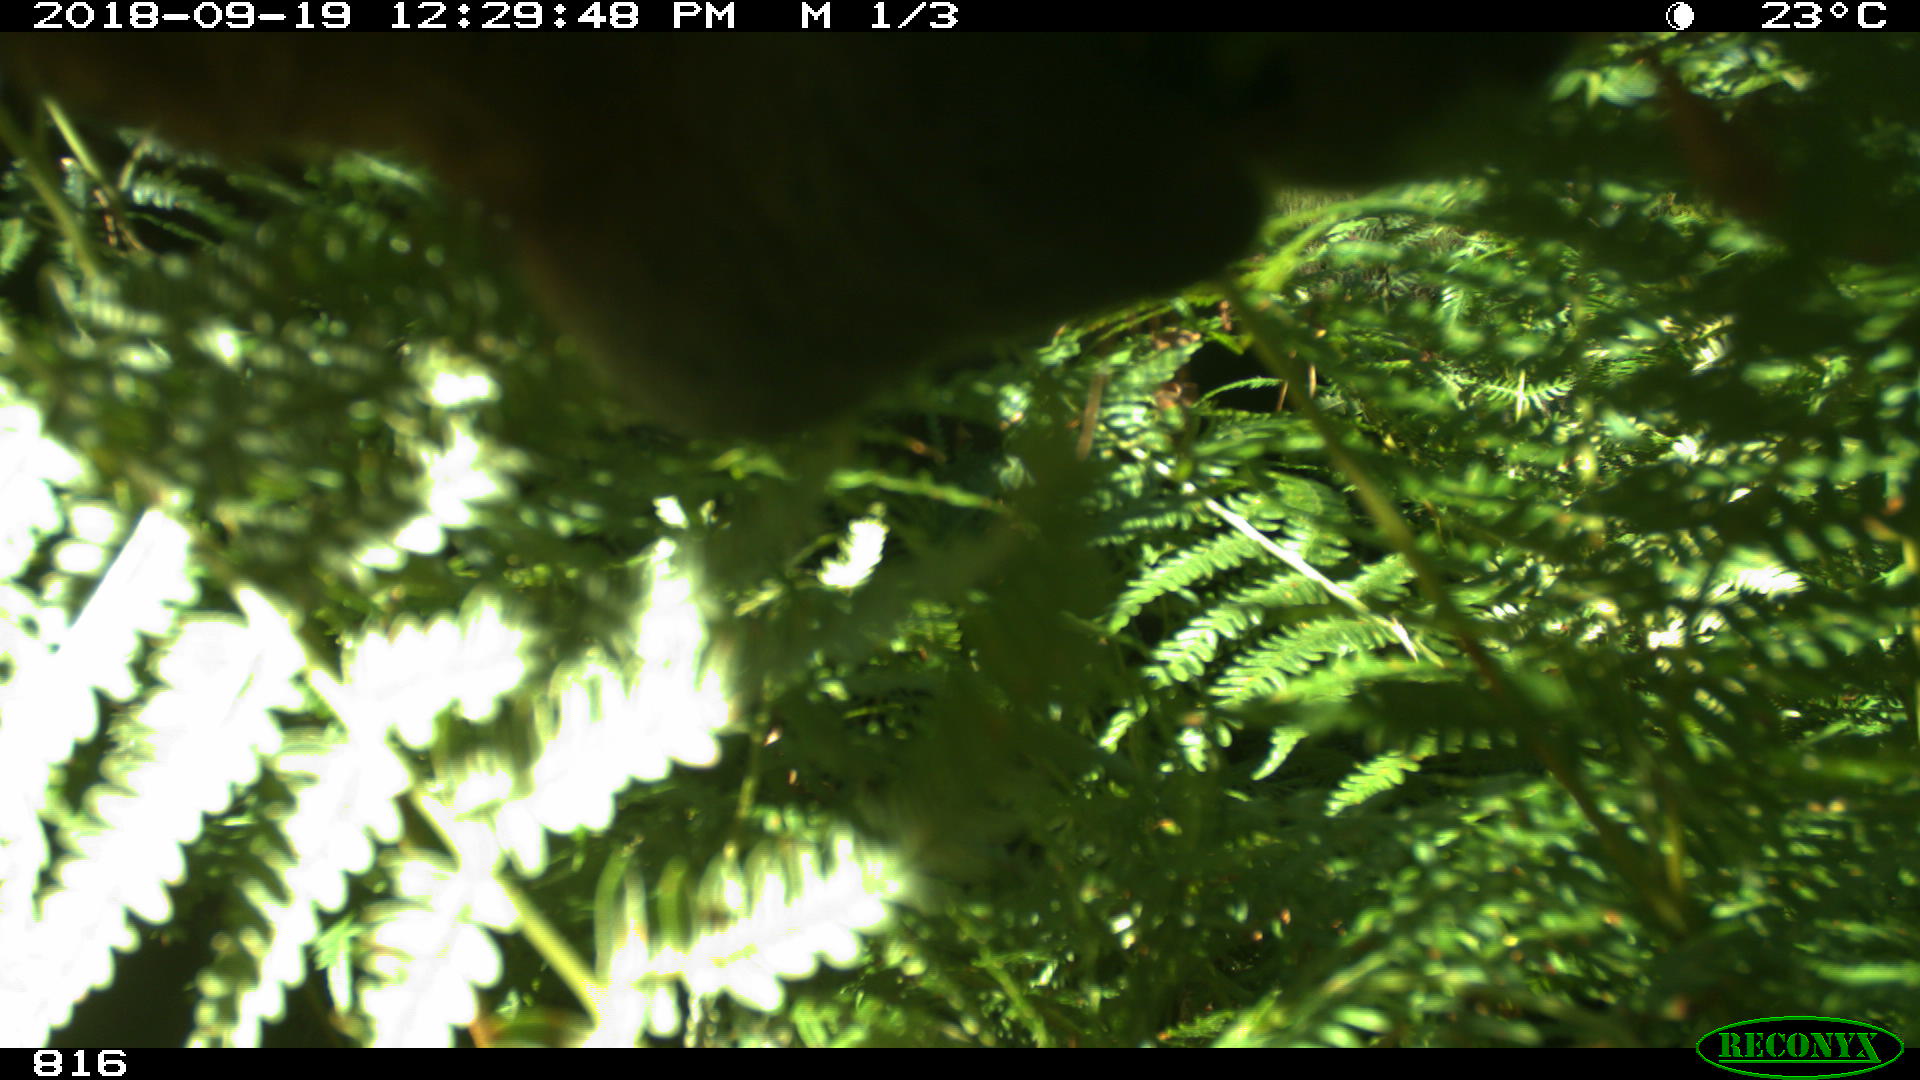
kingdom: Animalia
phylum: Chordata
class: Mammalia
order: Perissodactyla
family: Equidae
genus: Equus
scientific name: Equus caballus
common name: Horse
